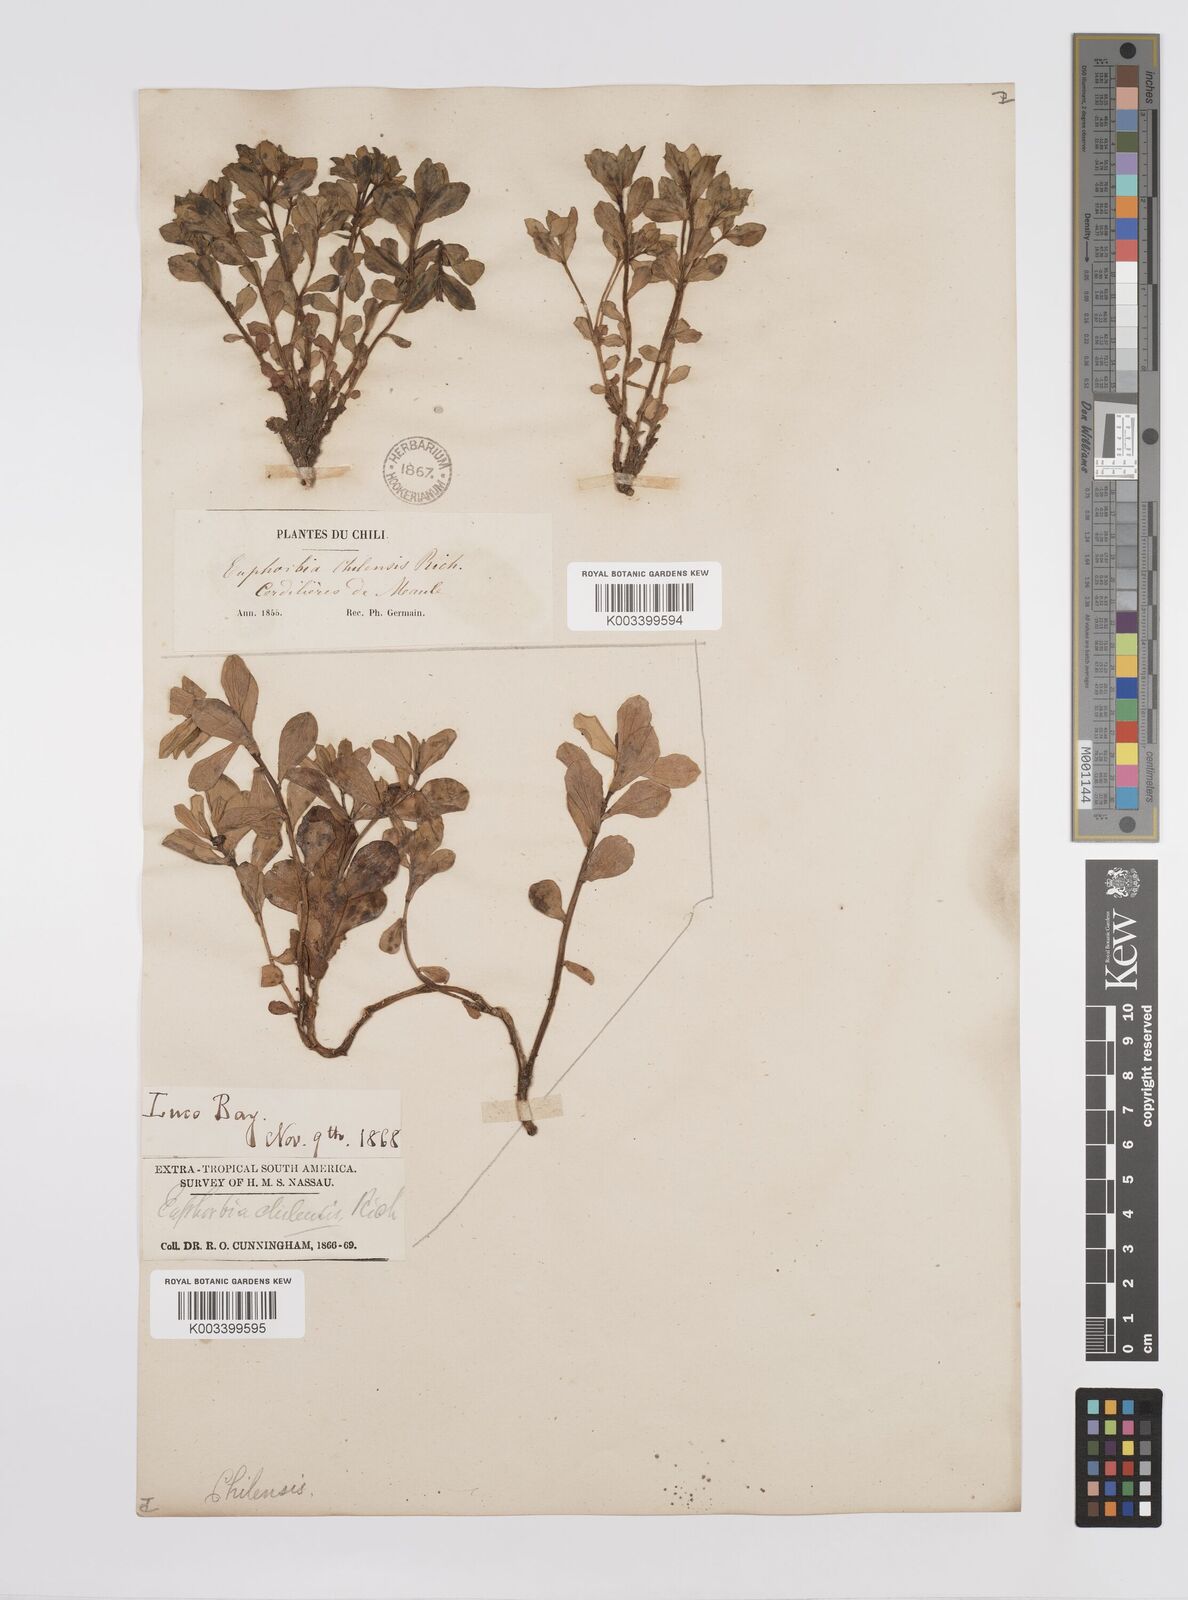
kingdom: Plantae
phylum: Tracheophyta
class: Magnoliopsida
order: Malpighiales
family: Euphorbiaceae
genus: Euphorbia
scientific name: Euphorbia portulacoides
